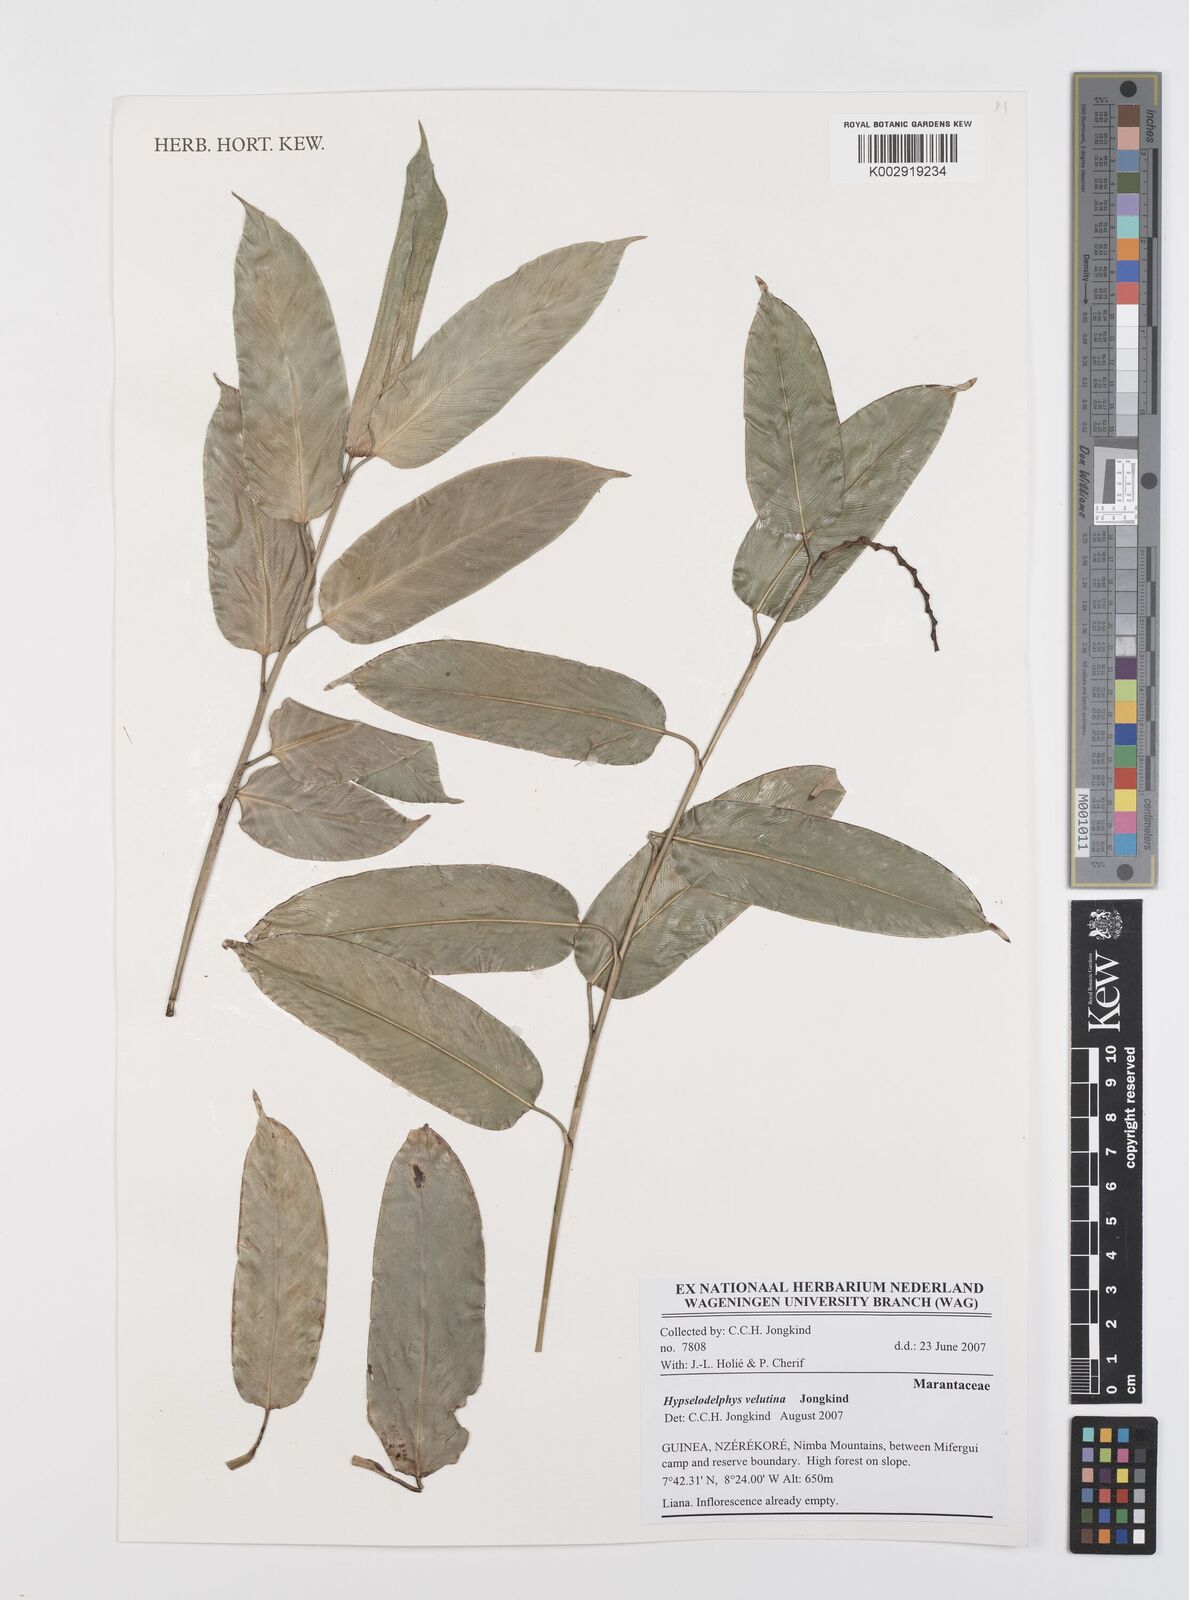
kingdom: Plantae
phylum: Tracheophyta
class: Liliopsida
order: Zingiberales
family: Marantaceae
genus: Hypselodelphys
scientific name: Hypselodelphys velutina
